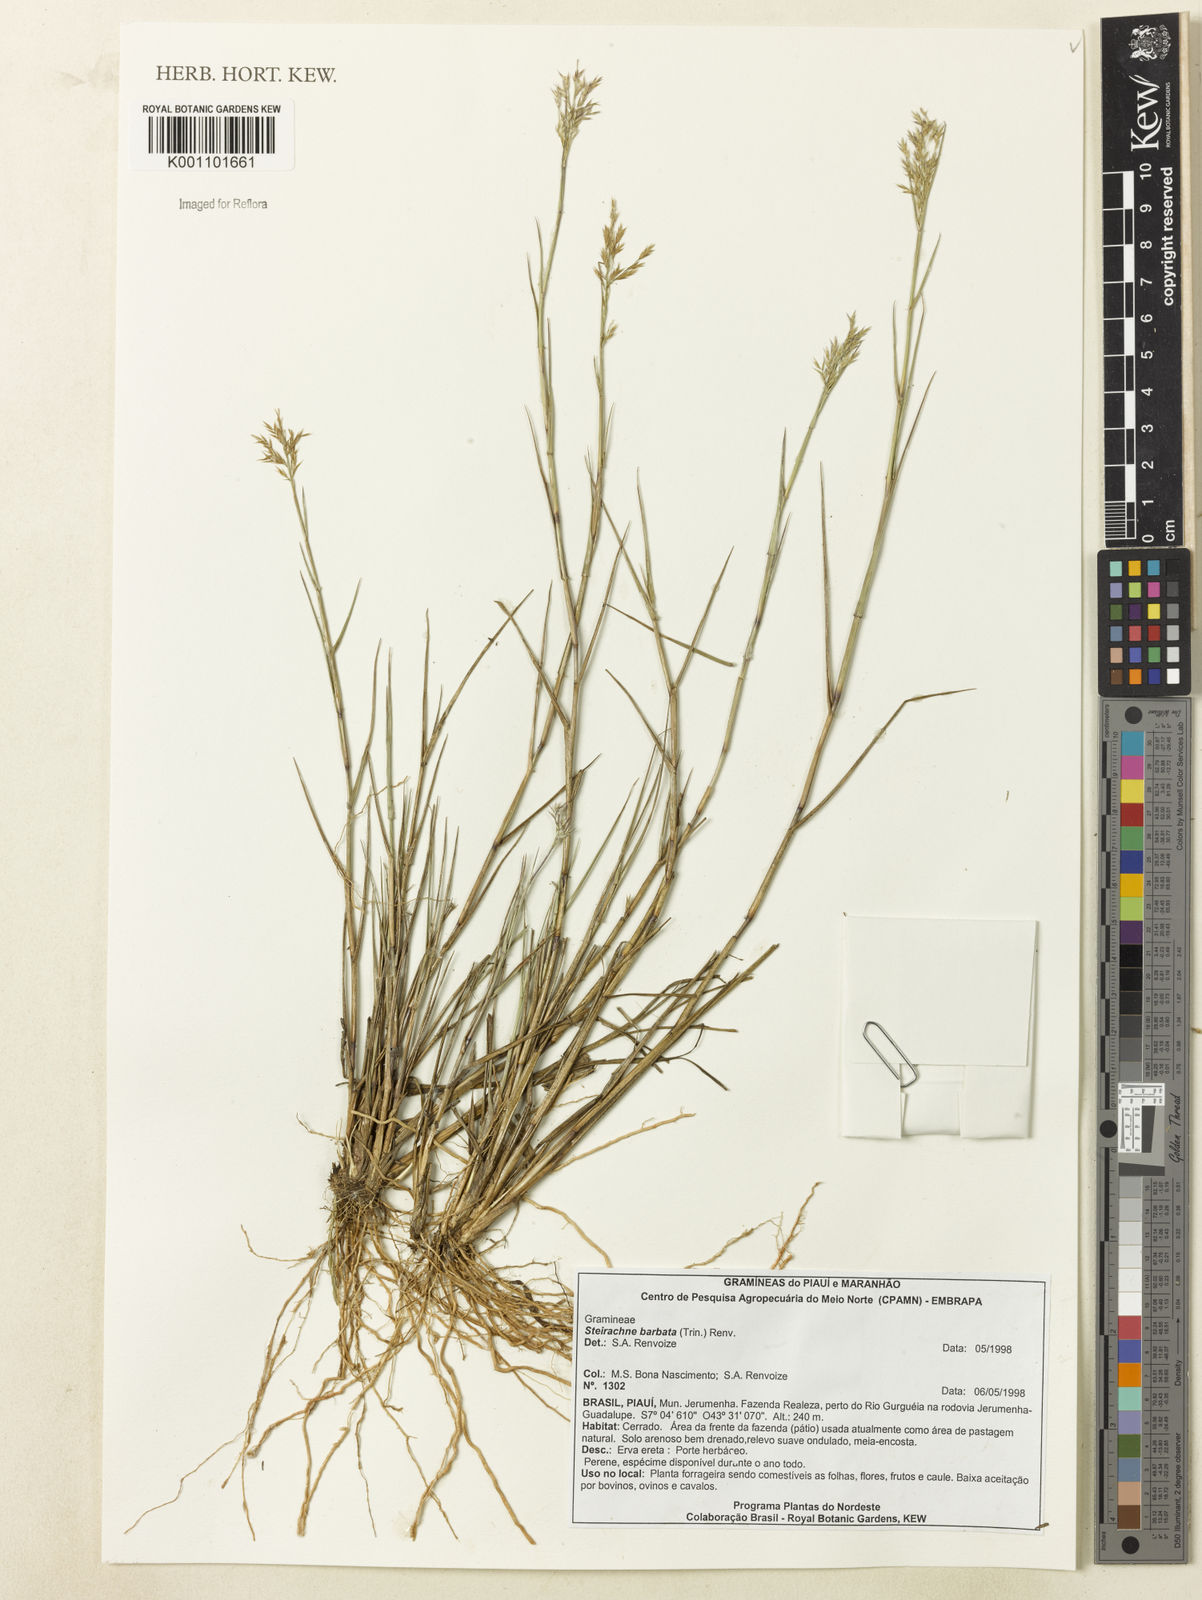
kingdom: Plantae
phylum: Tracheophyta
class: Liliopsida
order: Poales
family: Poaceae
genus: Steirachne
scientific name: Steirachne barbata
